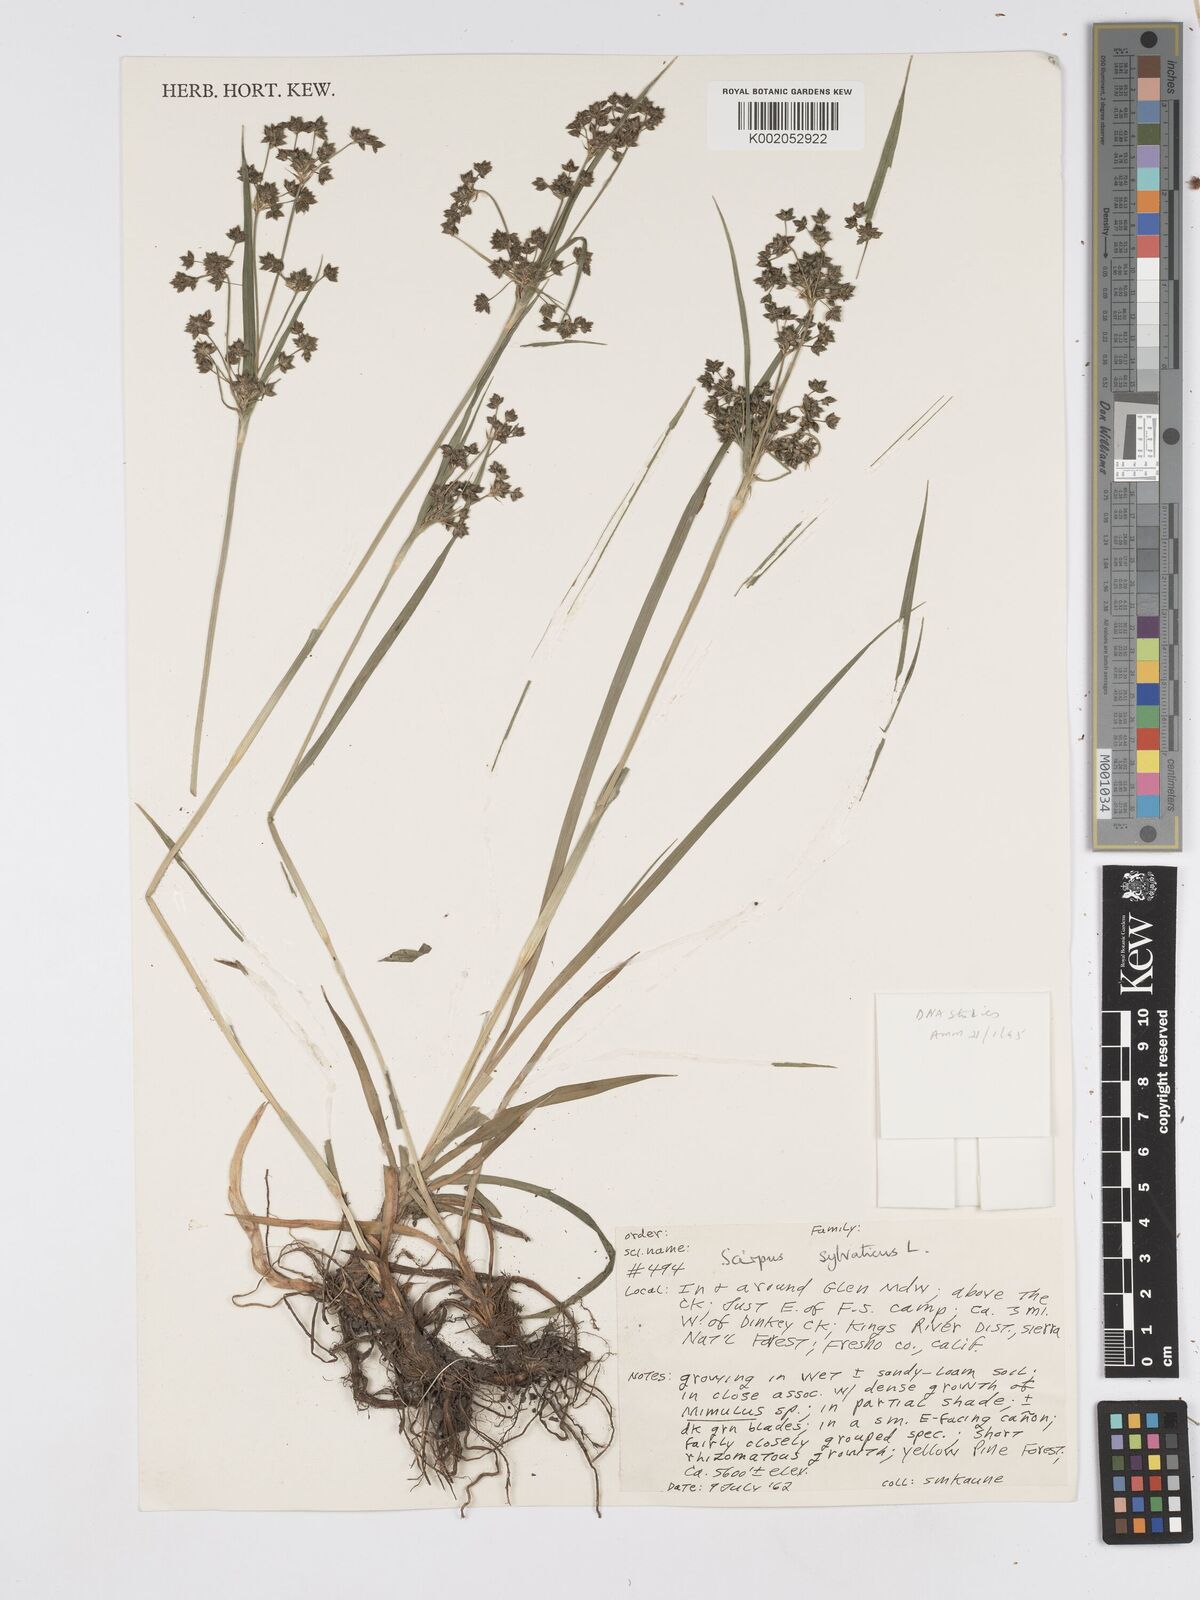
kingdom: Plantae
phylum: Tracheophyta
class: Liliopsida
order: Poales
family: Cyperaceae
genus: Scirpus
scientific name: Scirpus sylvaticus
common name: Wood club-rush
